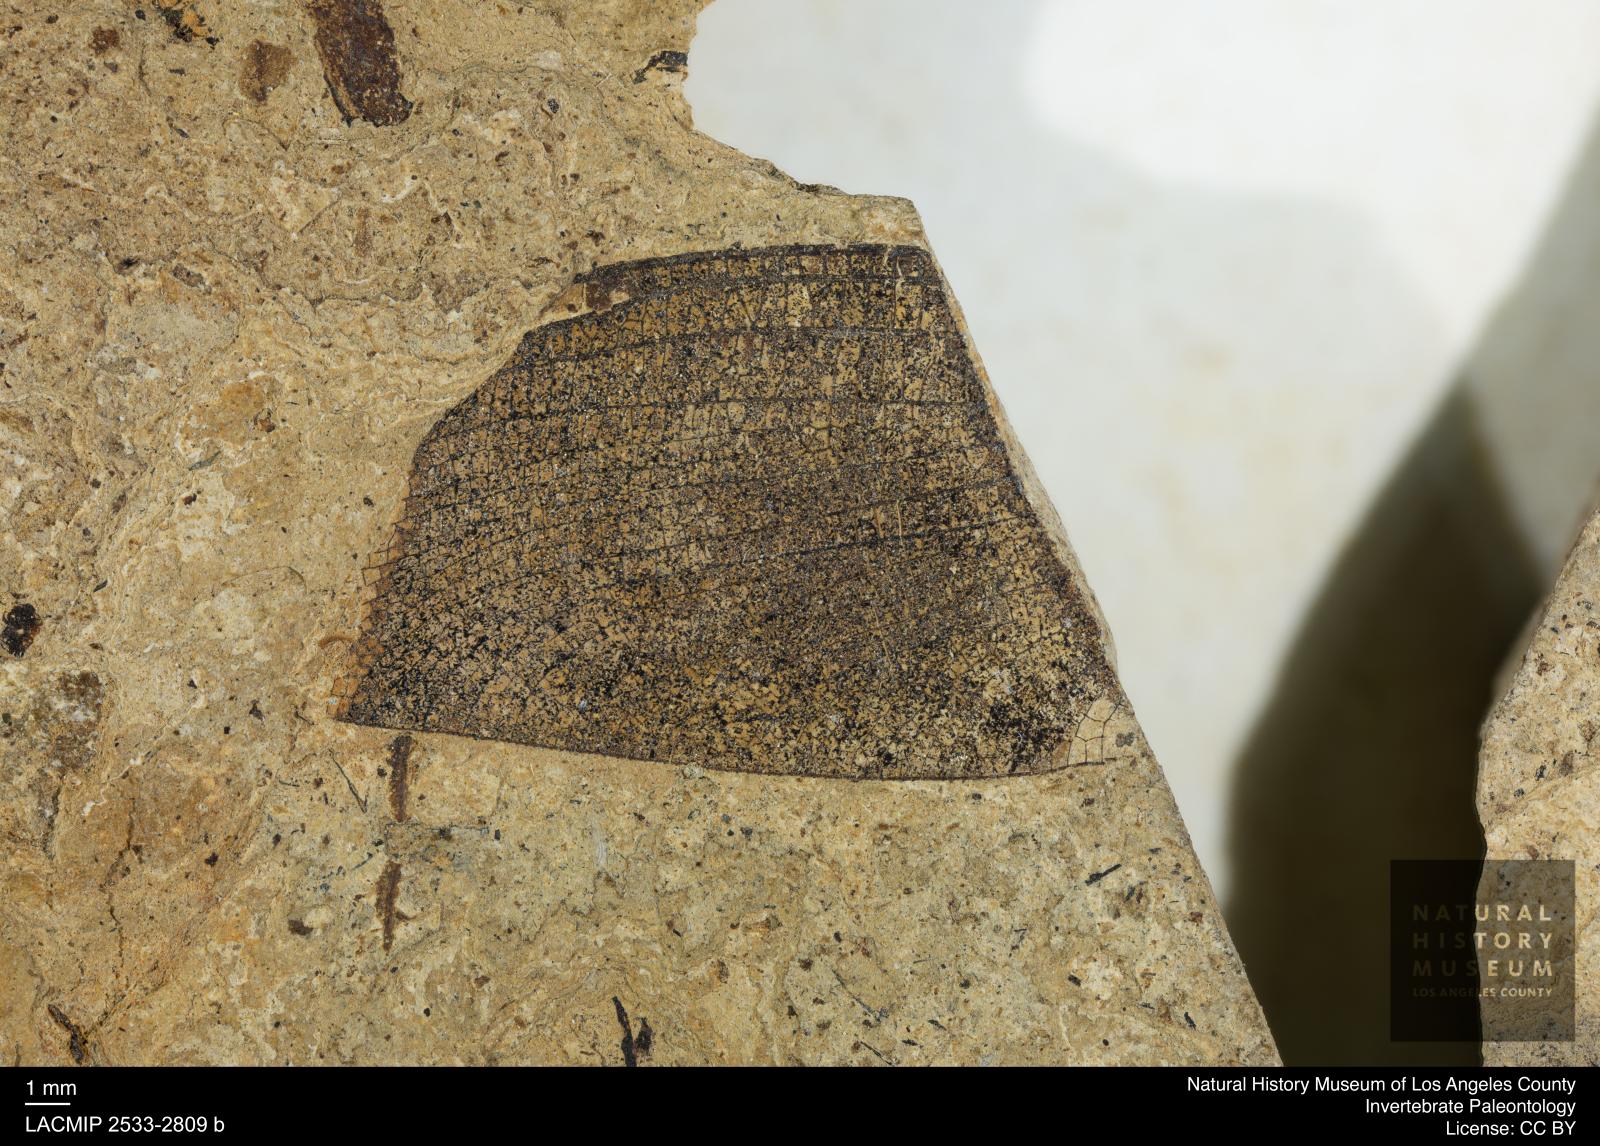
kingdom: Animalia
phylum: Arthropoda
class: Insecta
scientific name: Insecta
